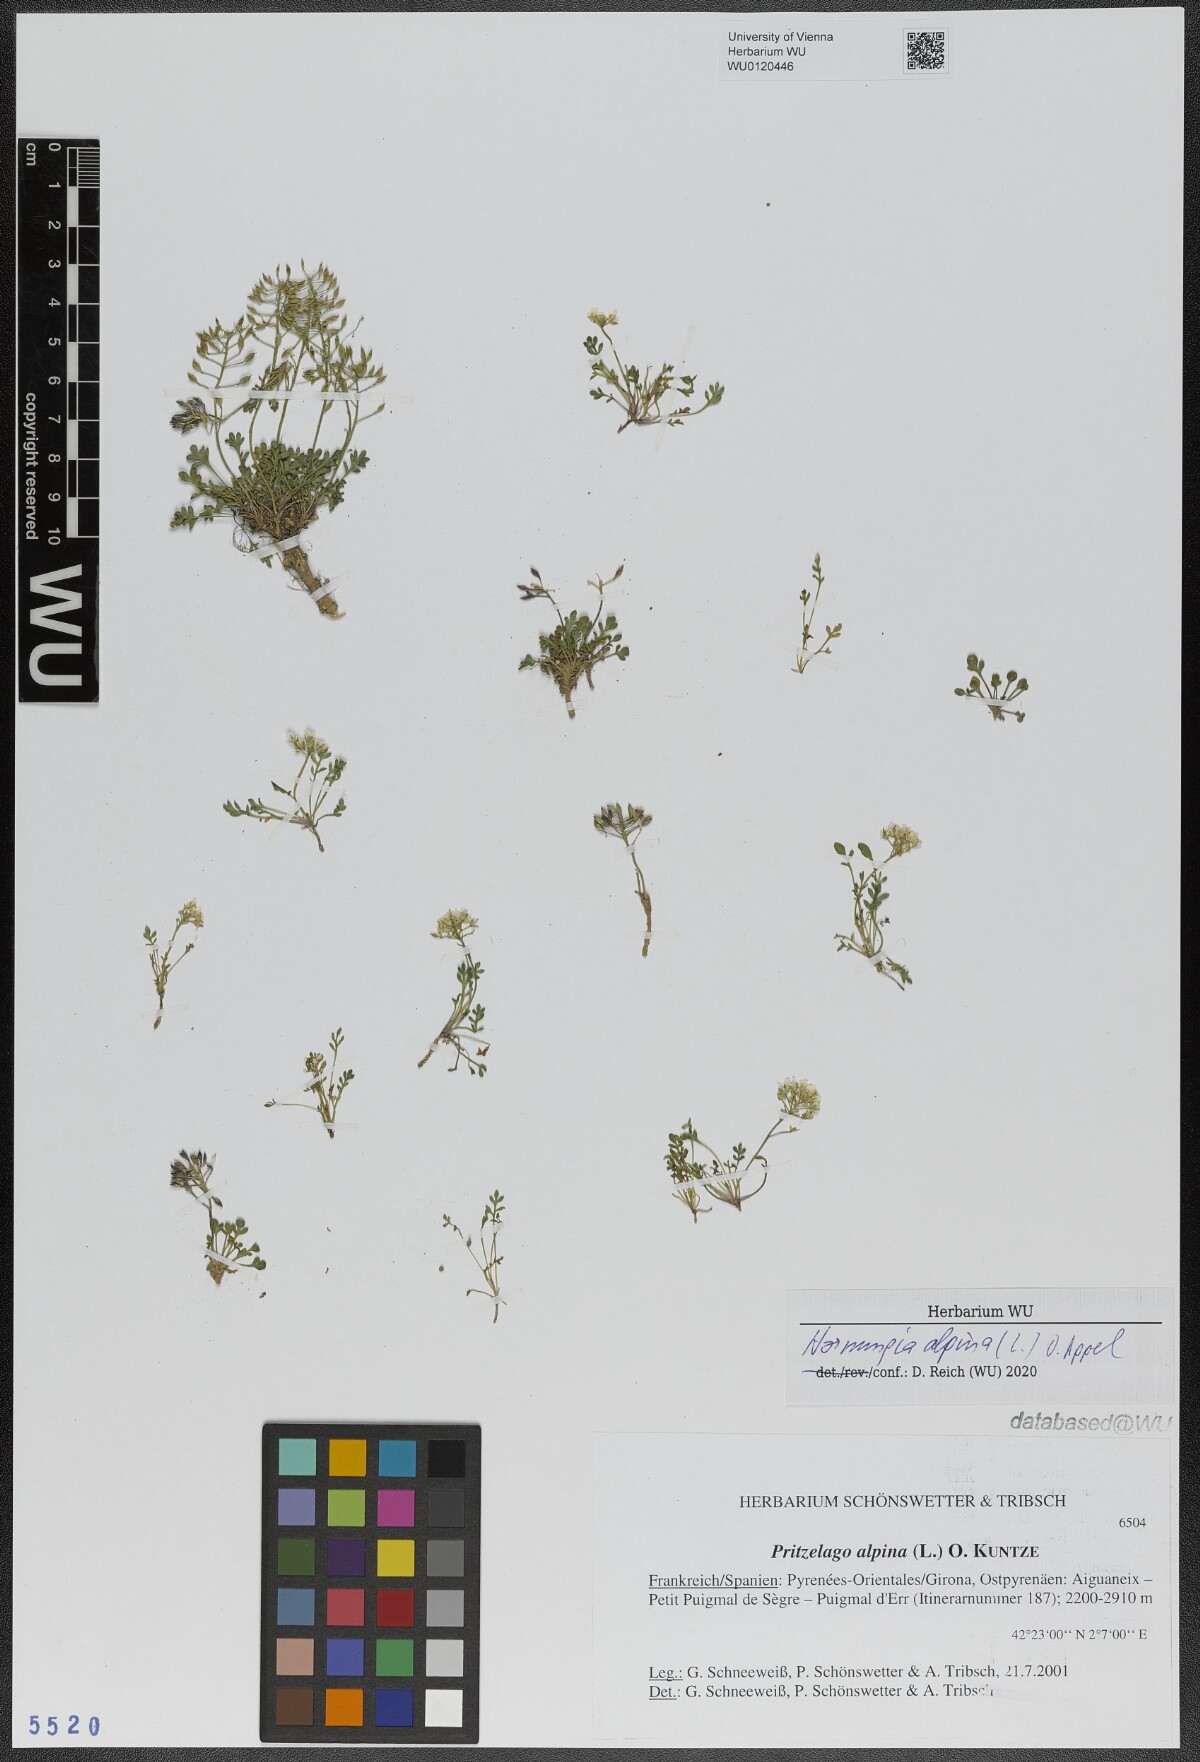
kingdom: Plantae
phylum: Tracheophyta
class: Magnoliopsida
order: Brassicales
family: Brassicaceae
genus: Hornungia
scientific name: Hornungia alpina
